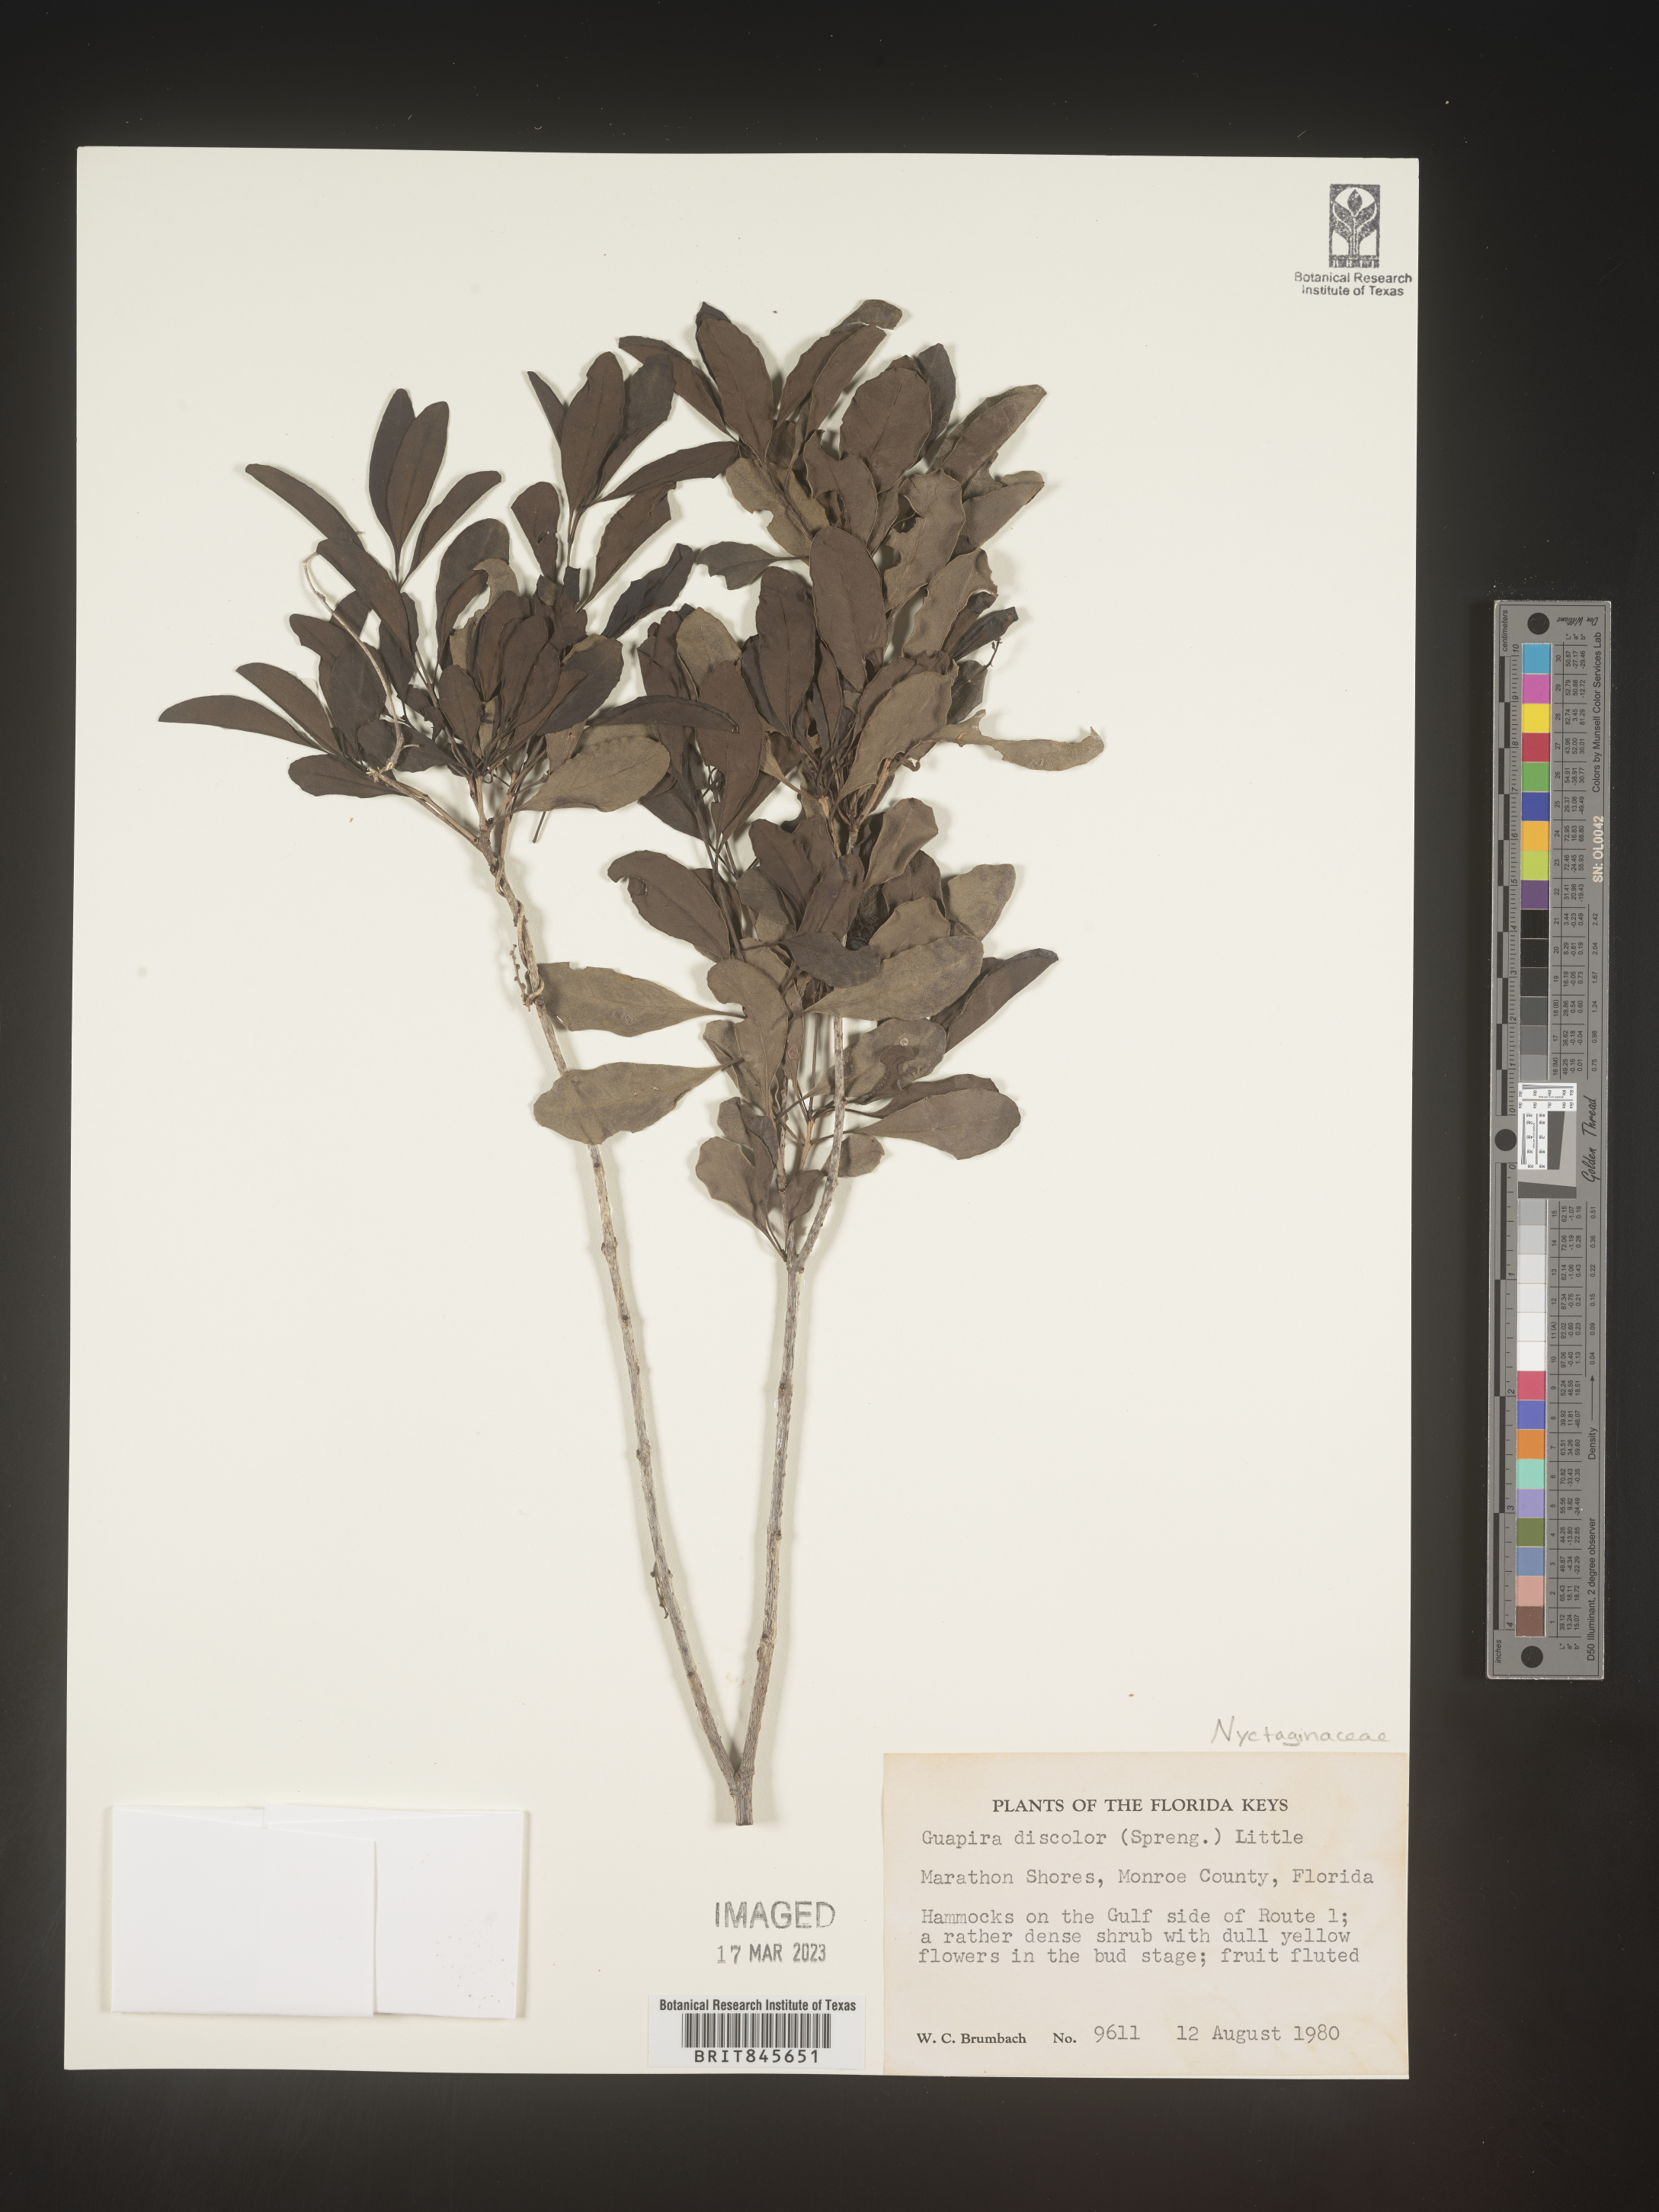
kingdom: Plantae
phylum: Tracheophyta
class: Magnoliopsida
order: Caryophyllales
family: Nyctaginaceae
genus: Guapira
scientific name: Guapira discolor
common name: Beeftree
